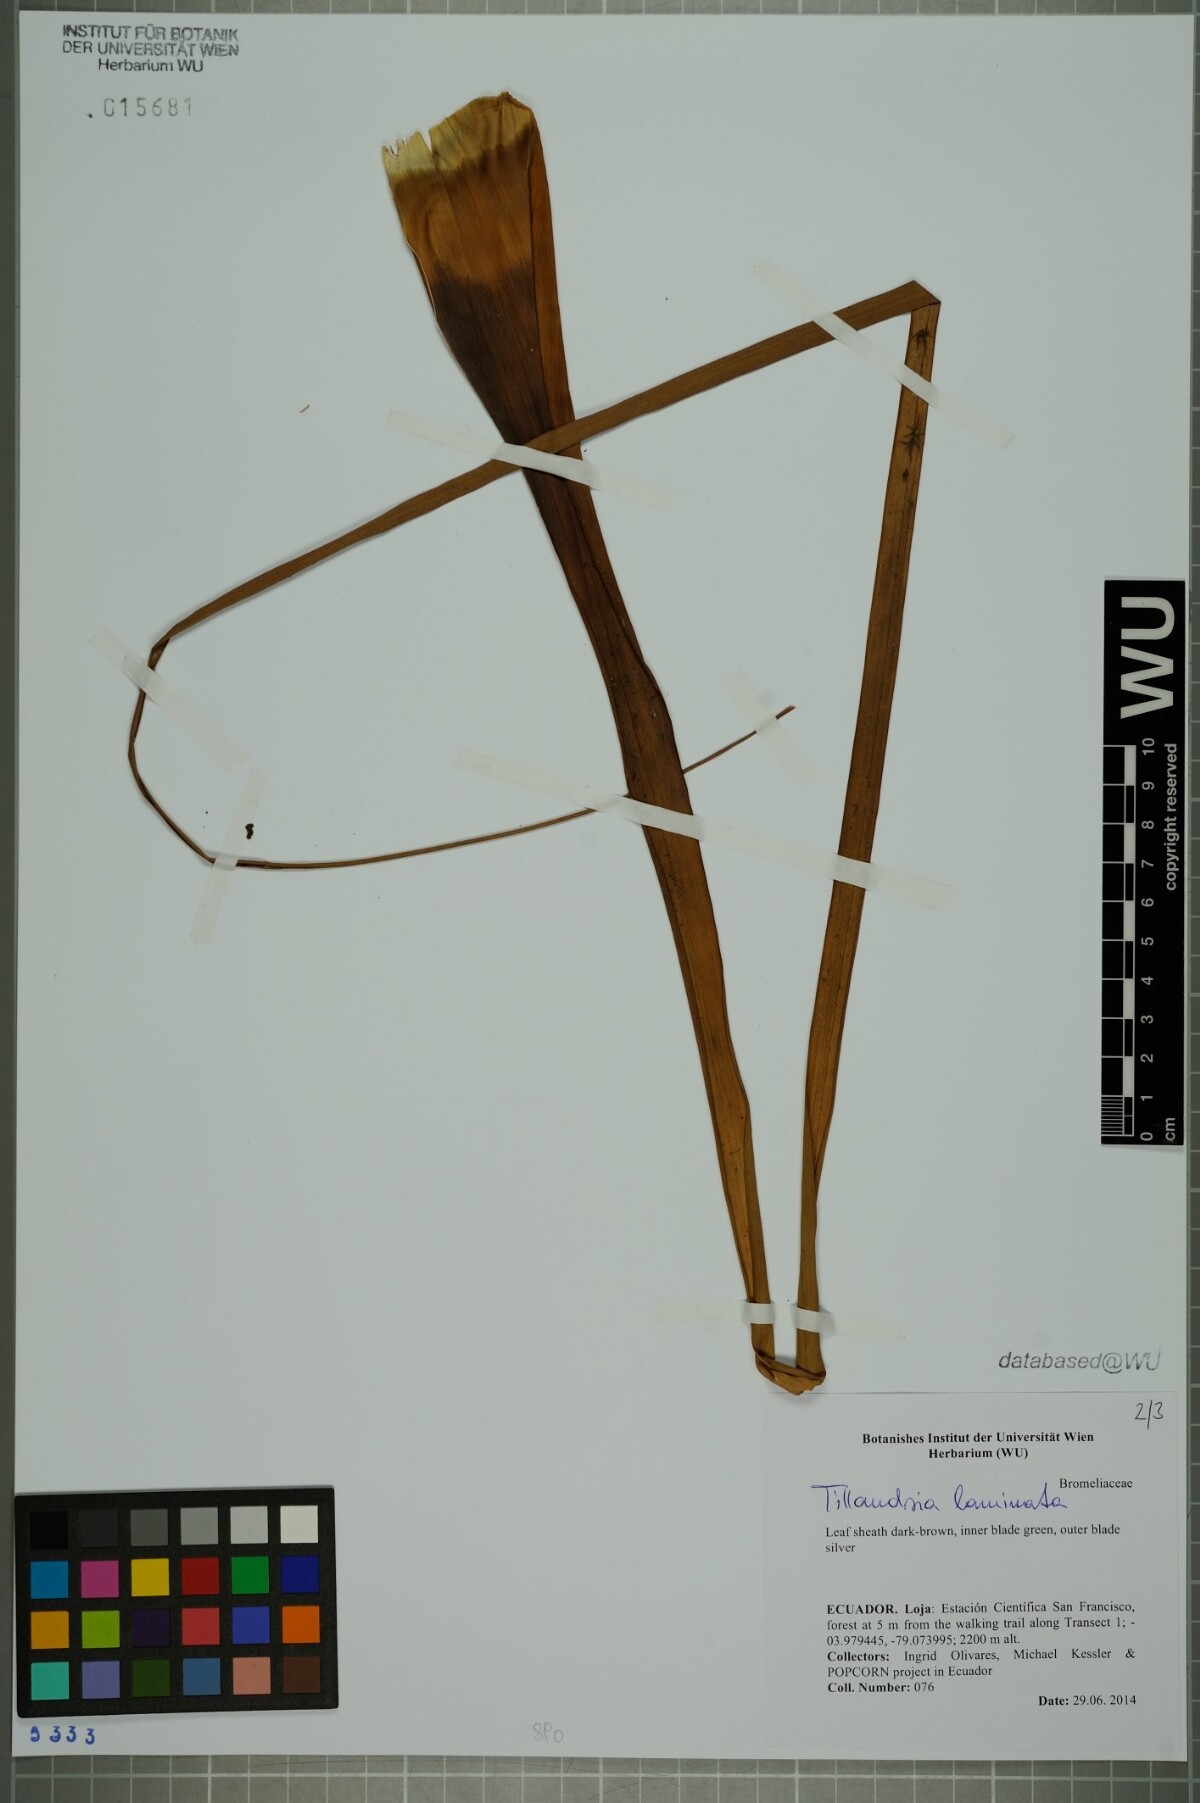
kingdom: Plantae
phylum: Tracheophyta
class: Liliopsida
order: Poales
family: Bromeliaceae
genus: Racinaea
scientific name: Racinaea laminata
